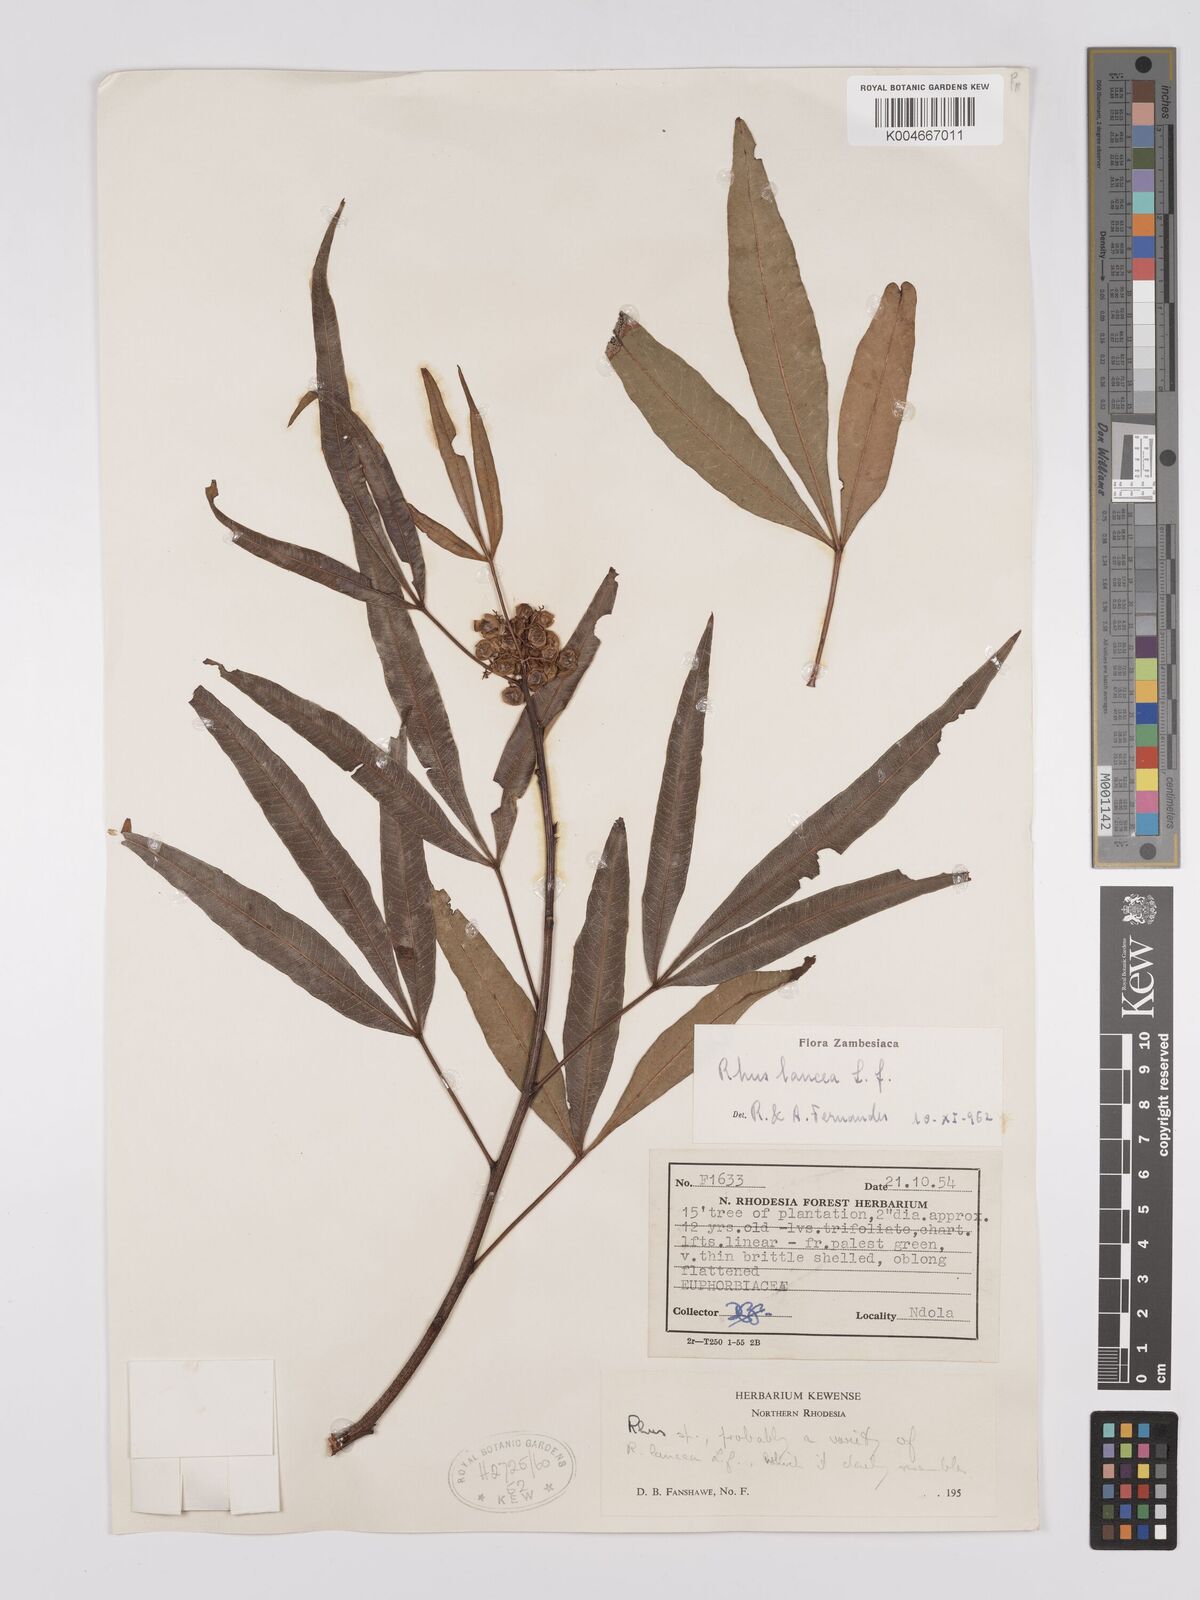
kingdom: Plantae
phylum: Tracheophyta
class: Magnoliopsida
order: Sapindales
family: Anacardiaceae
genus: Searsia
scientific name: Searsia lancea
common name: Cashew
